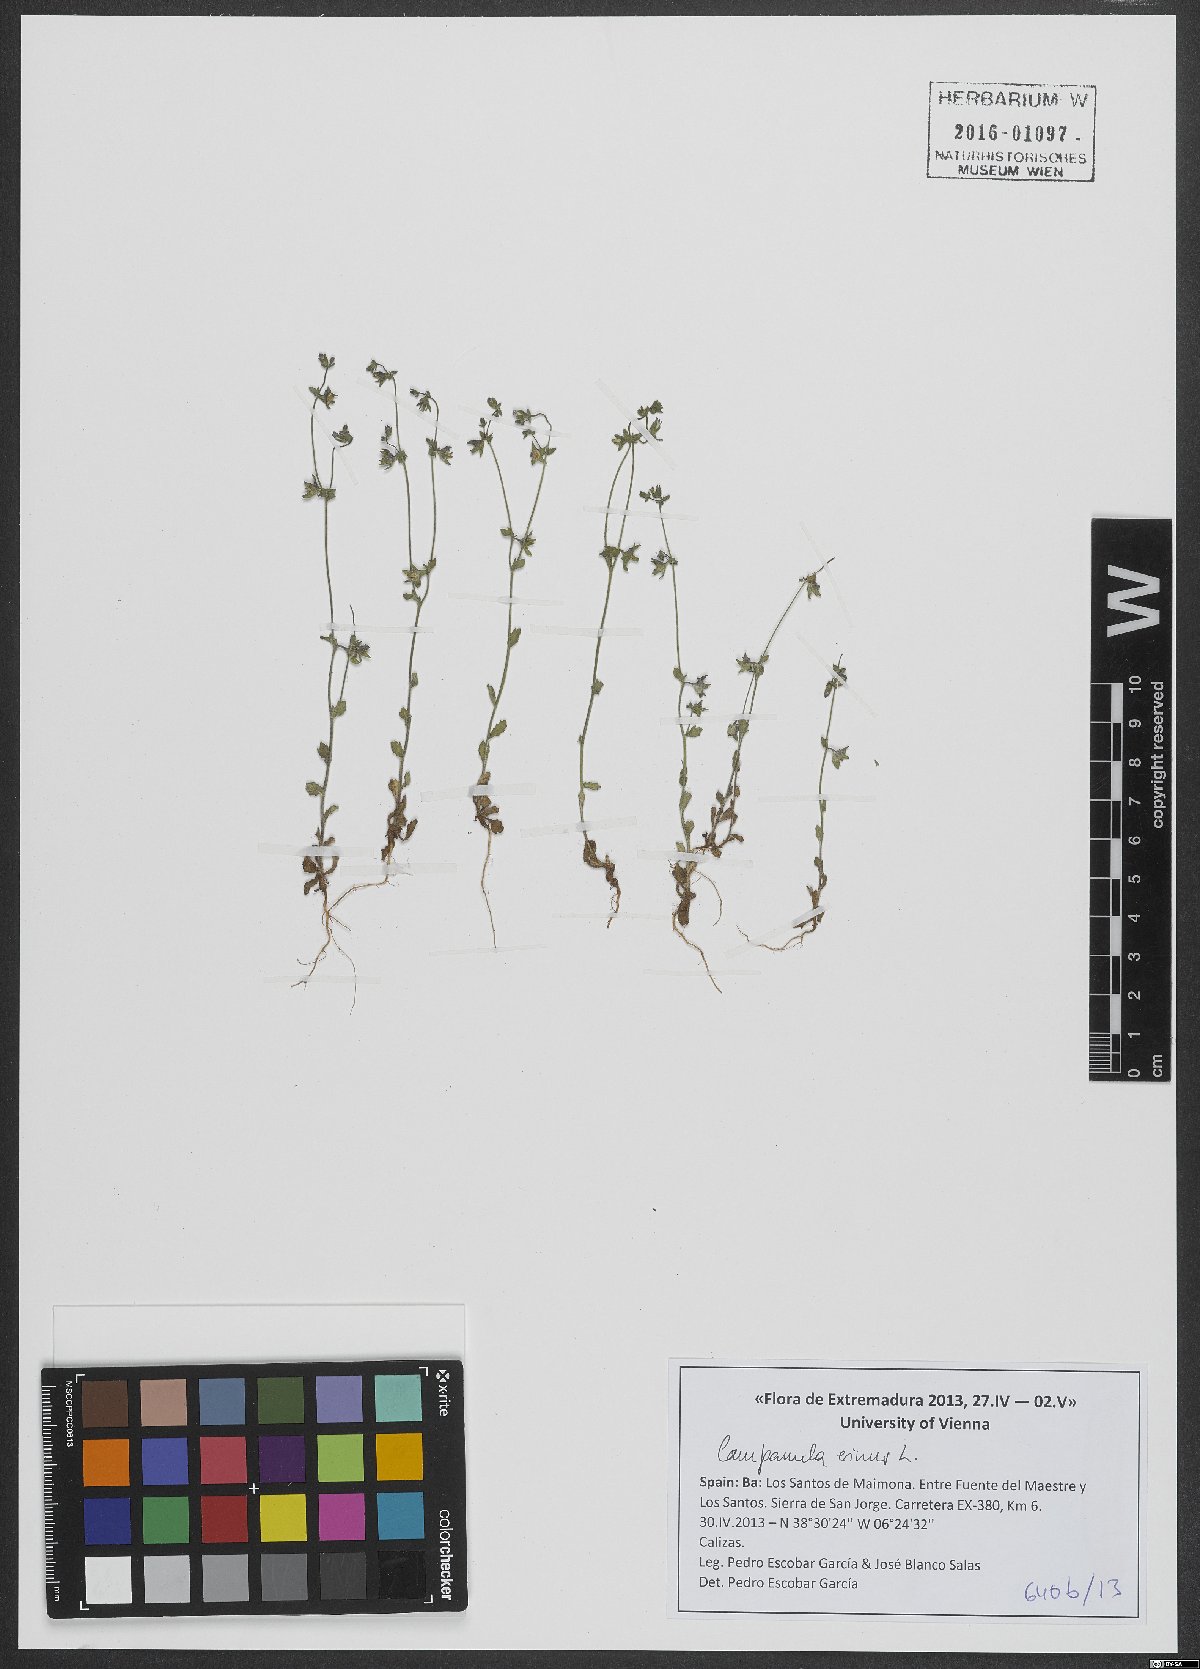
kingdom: Plantae
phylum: Tracheophyta
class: Magnoliopsida
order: Asterales
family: Campanulaceae
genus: Campanula
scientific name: Campanula erinus
